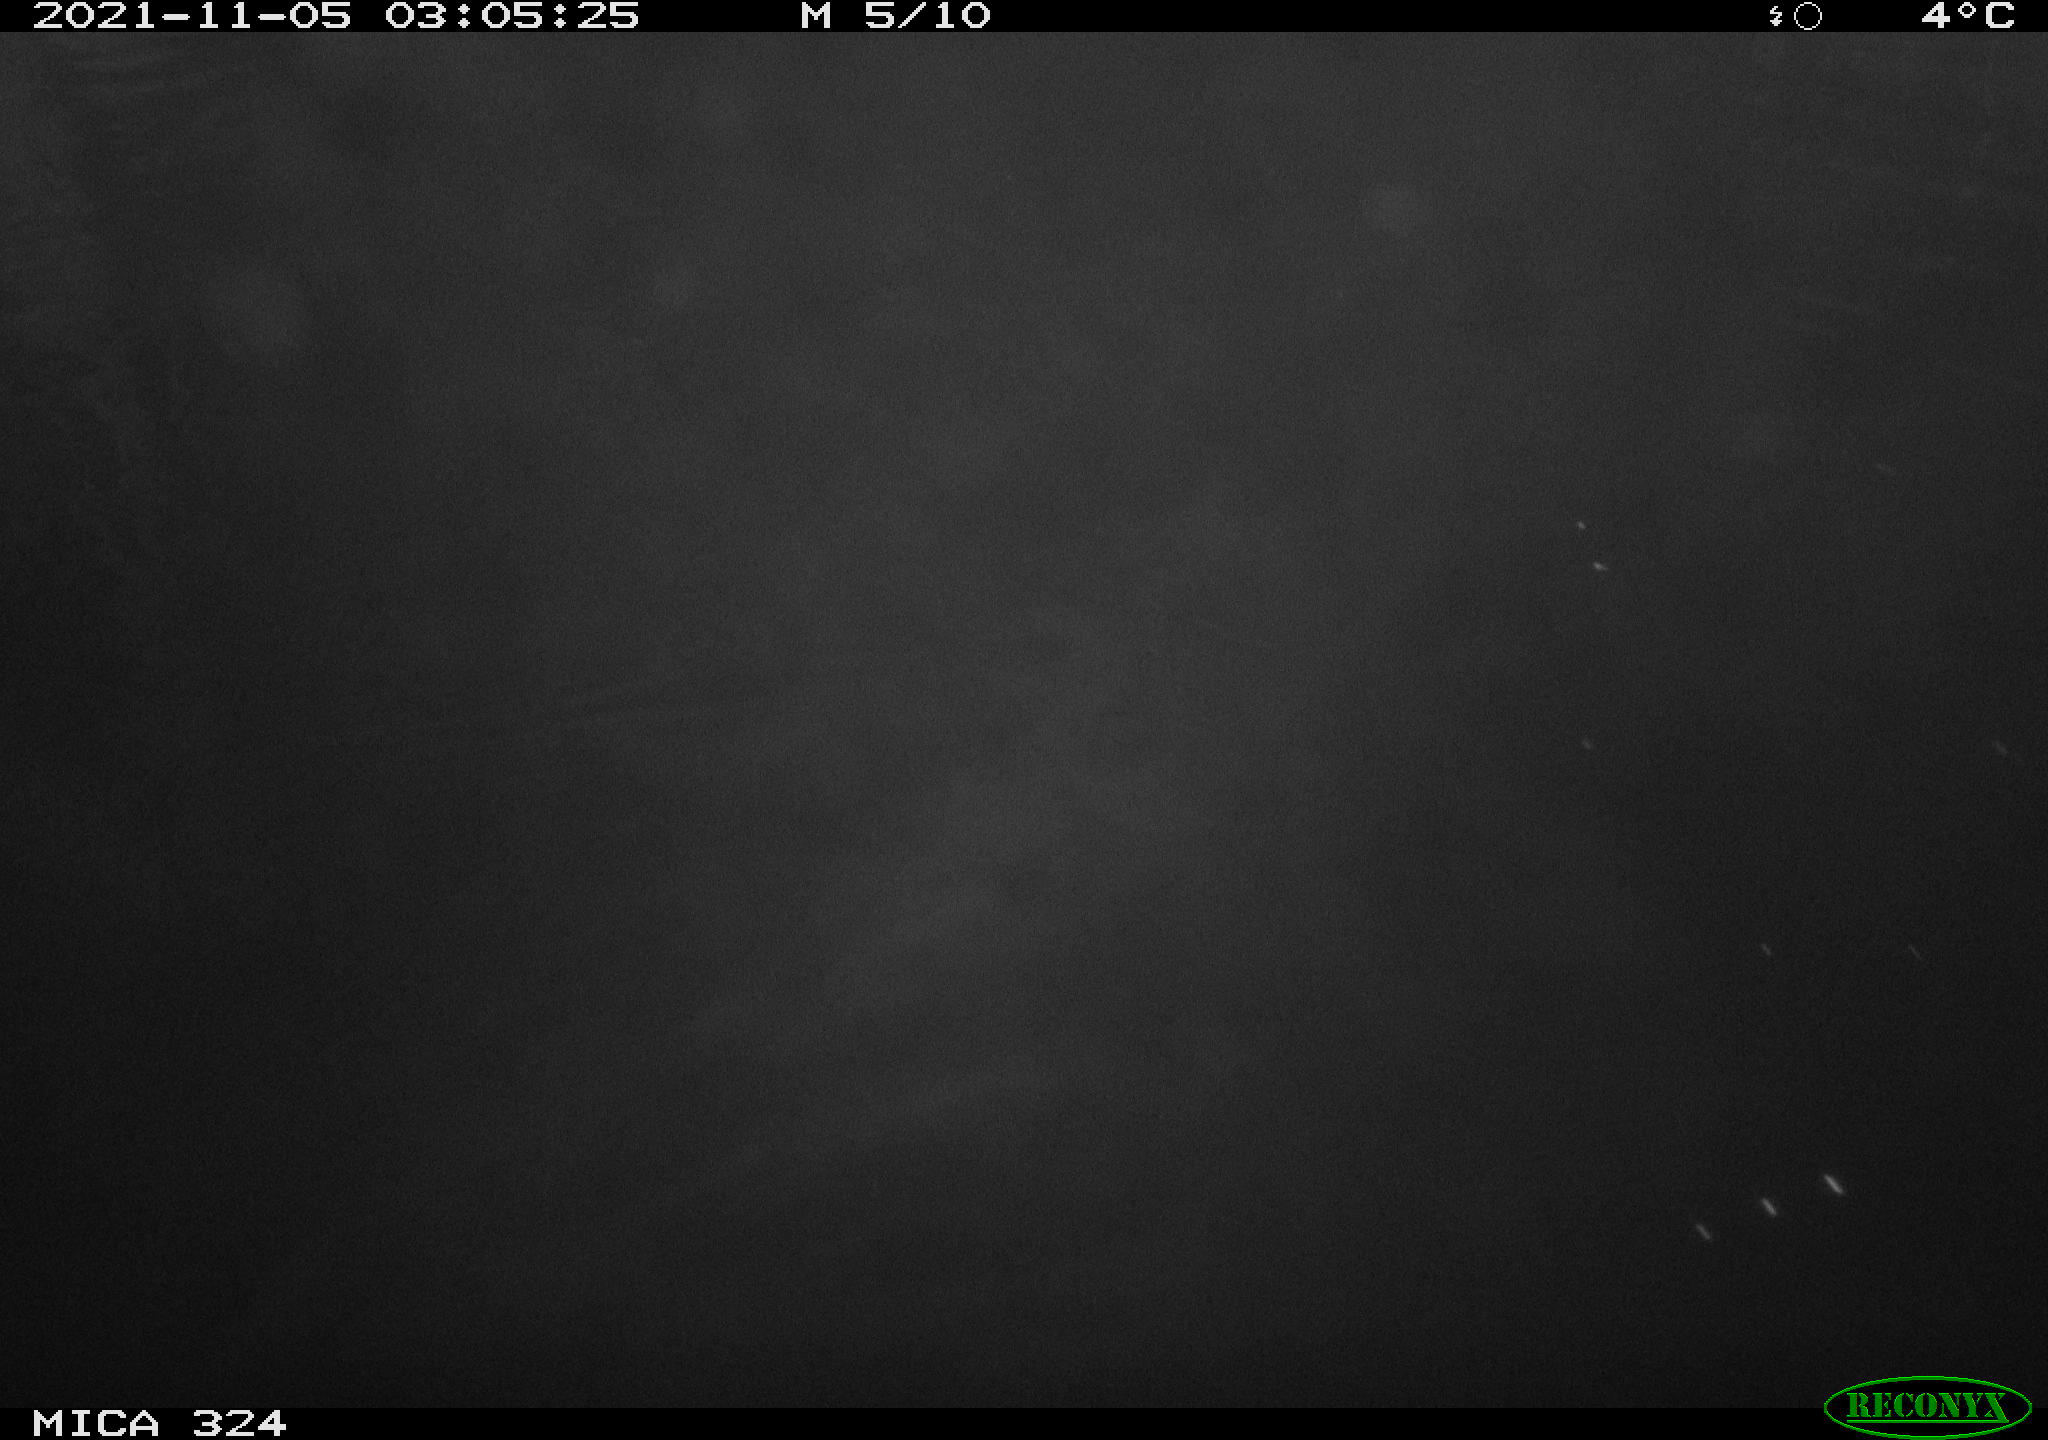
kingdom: Animalia
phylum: Chordata
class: Mammalia
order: Rodentia
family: Cricetidae
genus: Ondatra
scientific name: Ondatra zibethicus
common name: Muskrat
